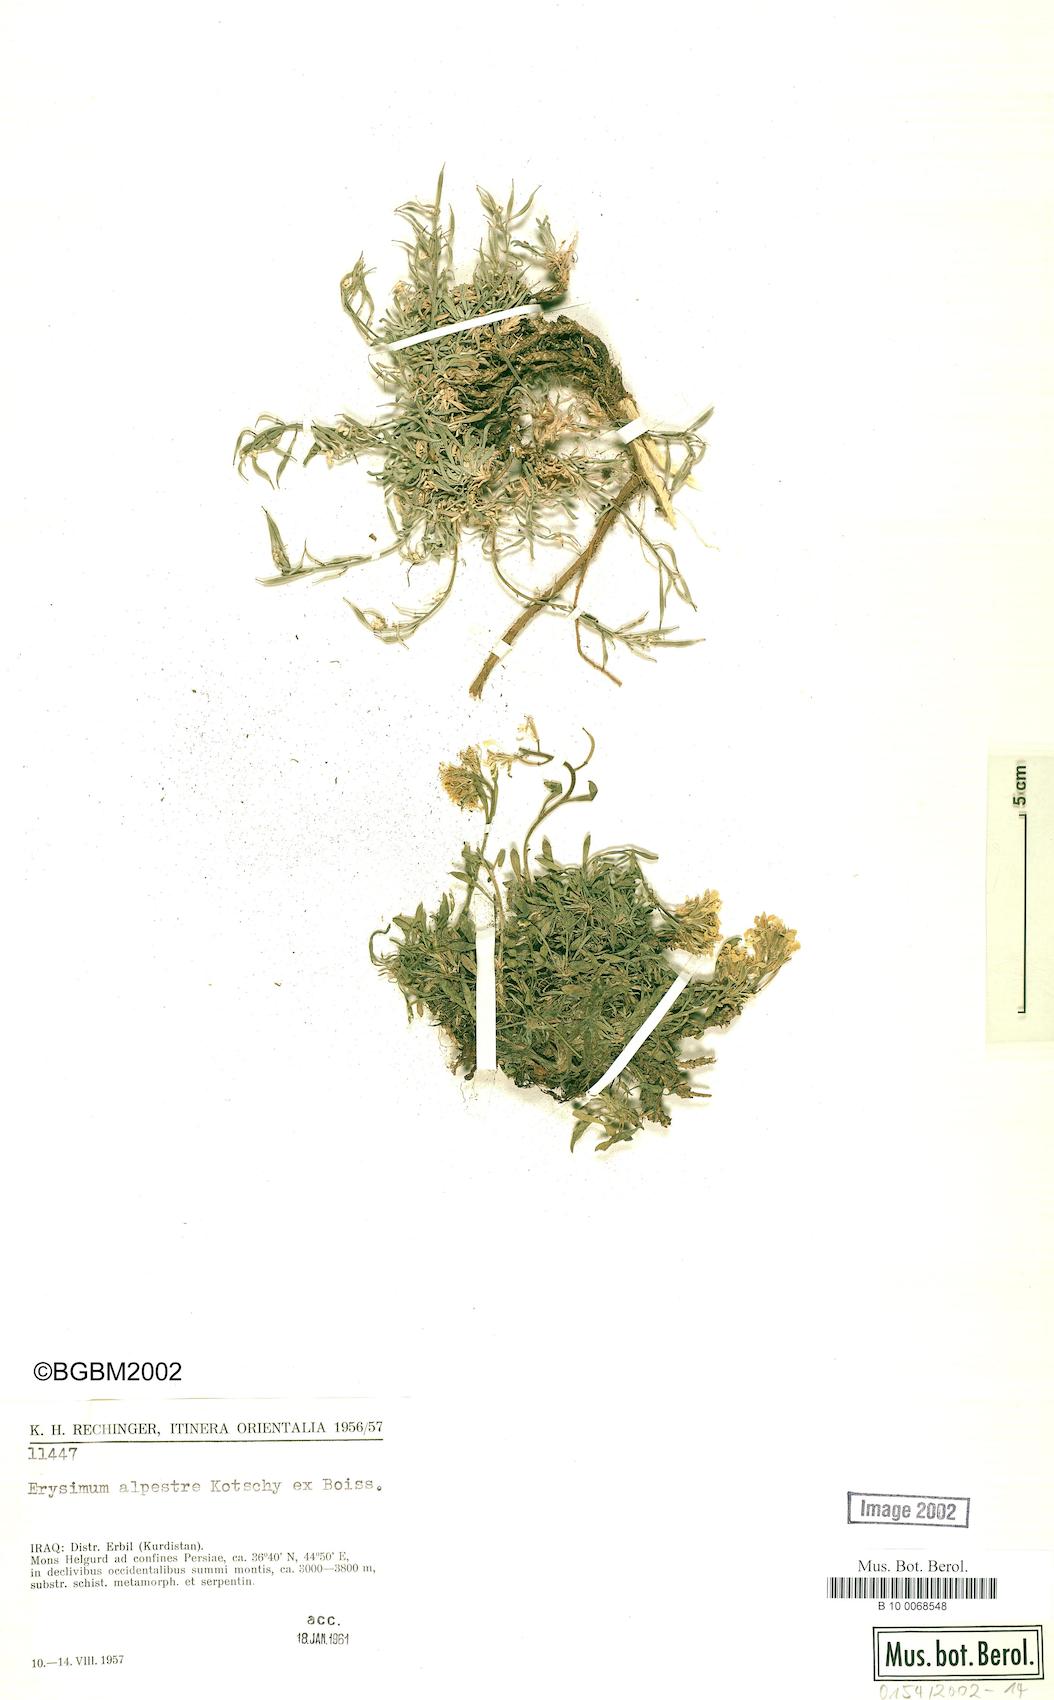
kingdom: Plantae
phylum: Tracheophyta
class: Magnoliopsida
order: Brassicales
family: Brassicaceae
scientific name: Brassicaceae
